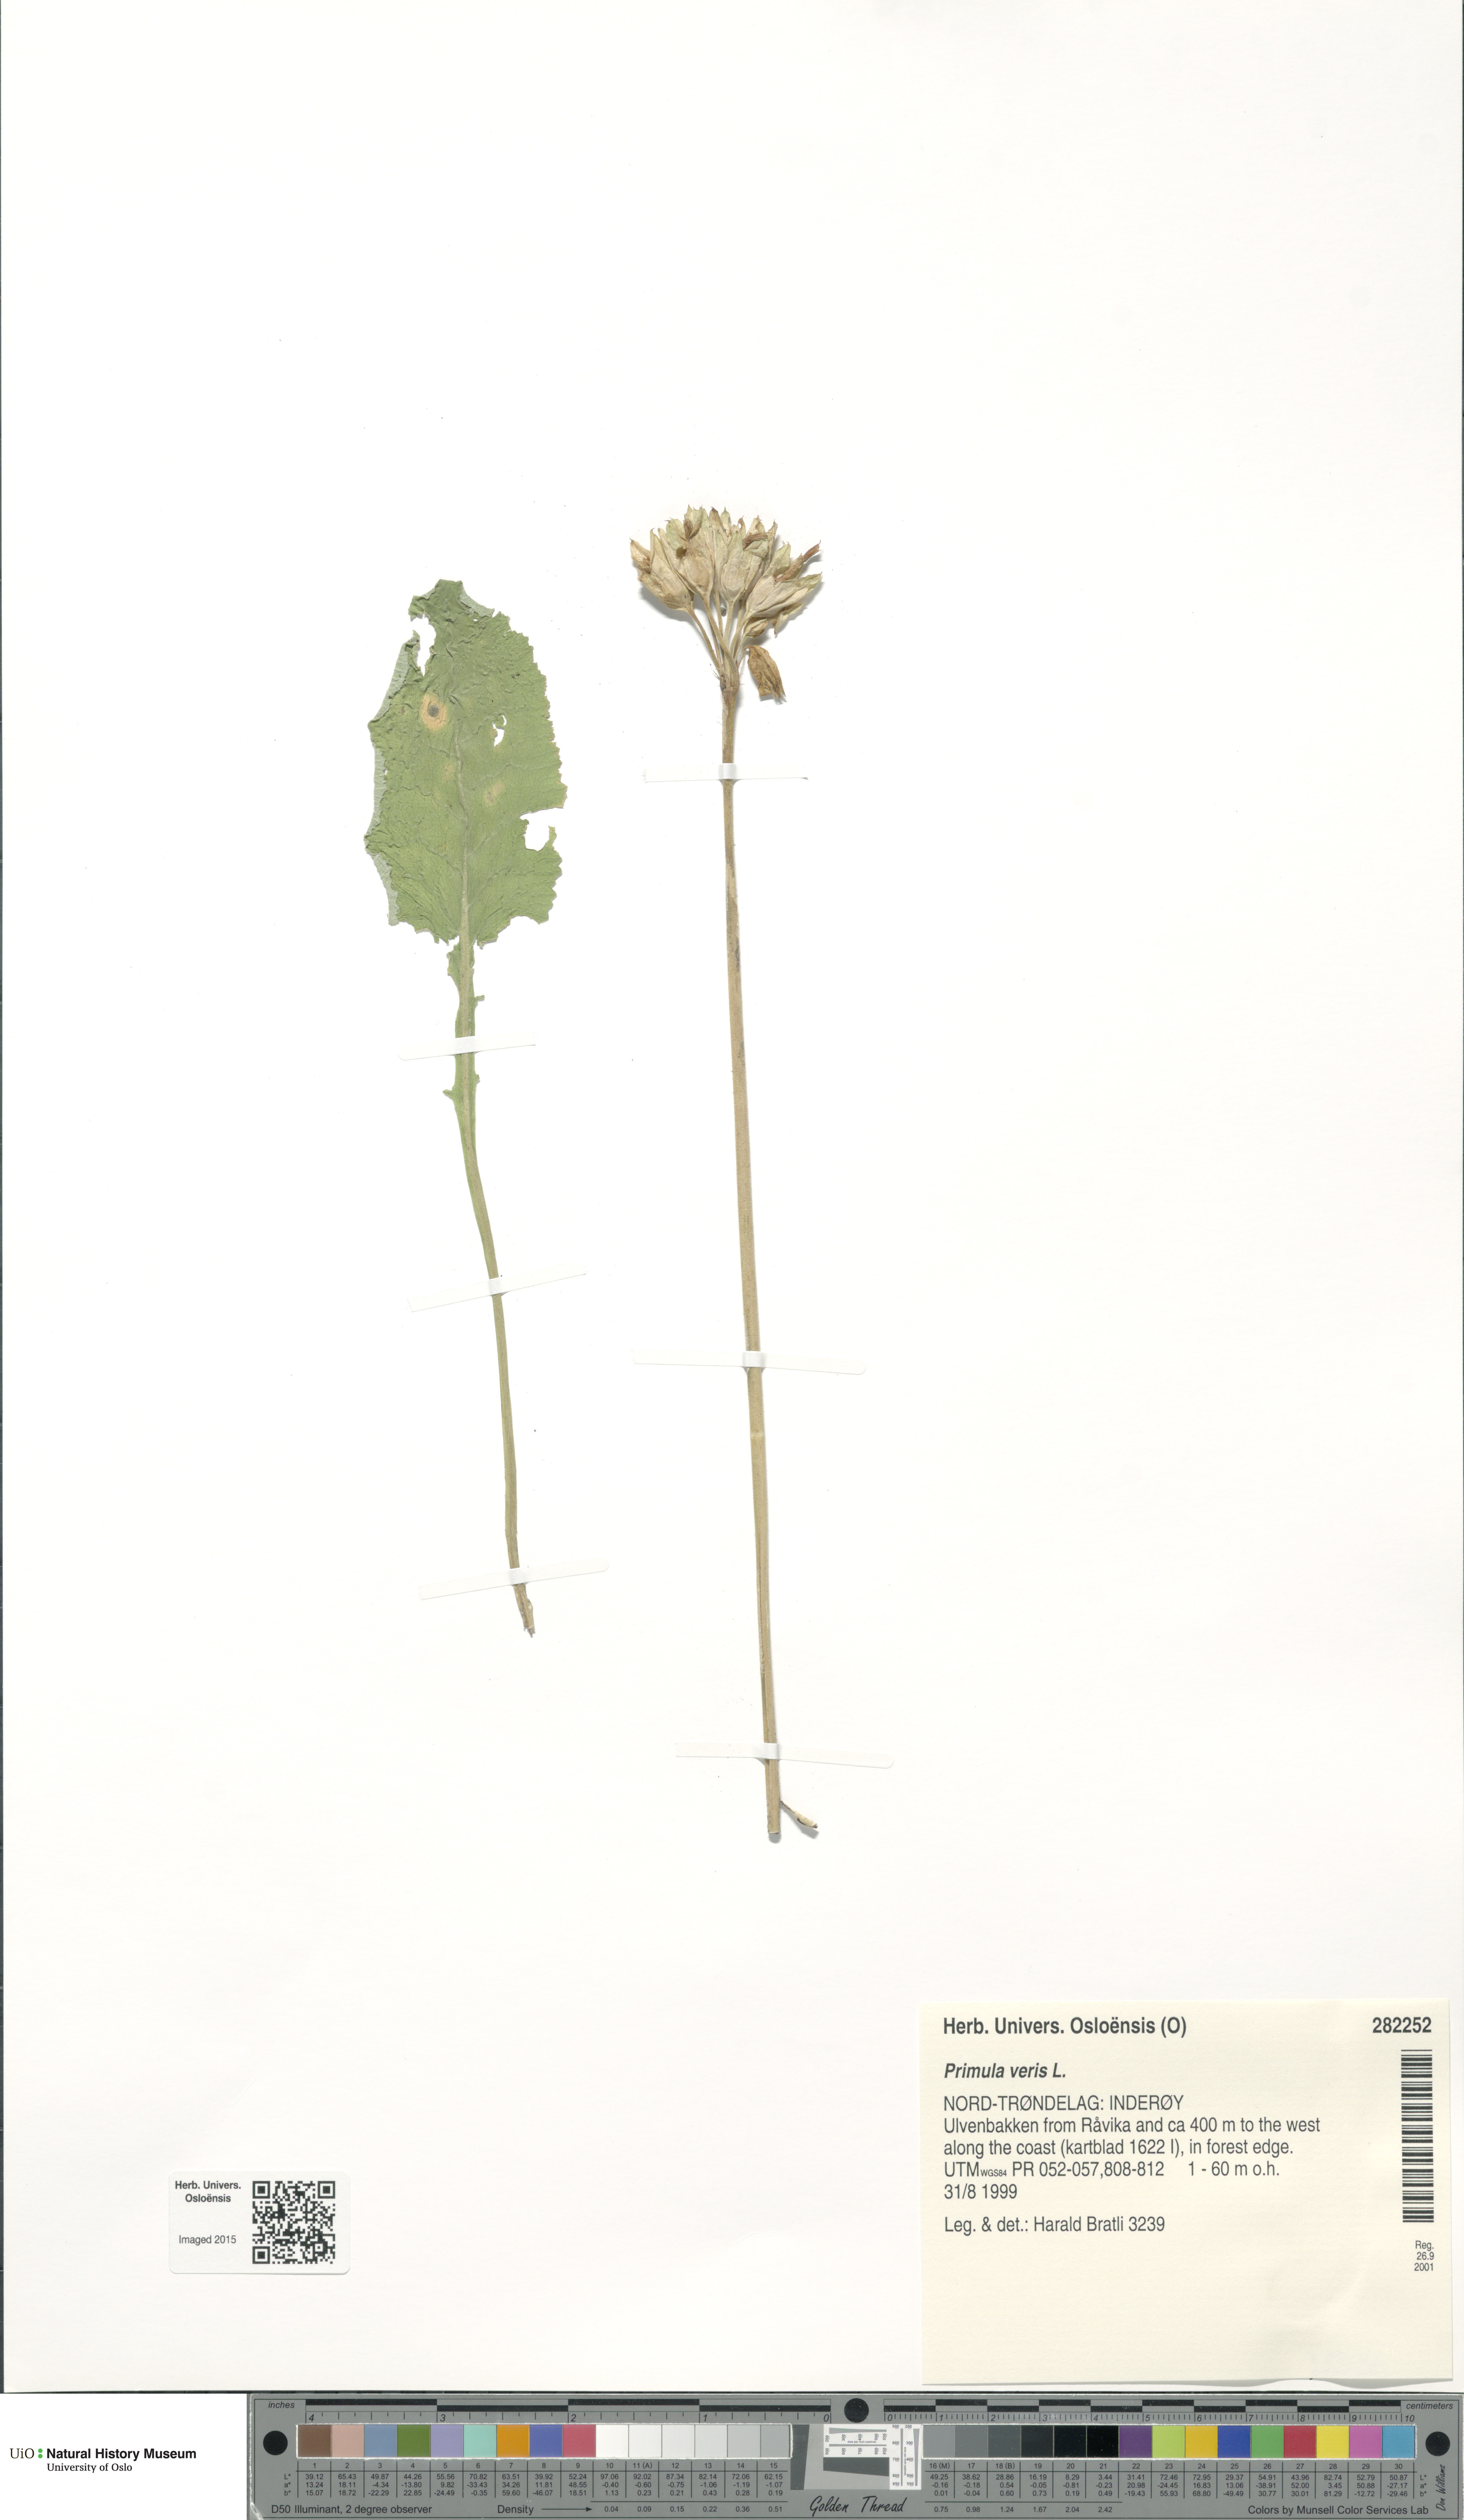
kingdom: Plantae
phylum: Tracheophyta
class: Magnoliopsida
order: Ericales
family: Primulaceae
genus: Primula
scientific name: Primula veris
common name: Cowslip
